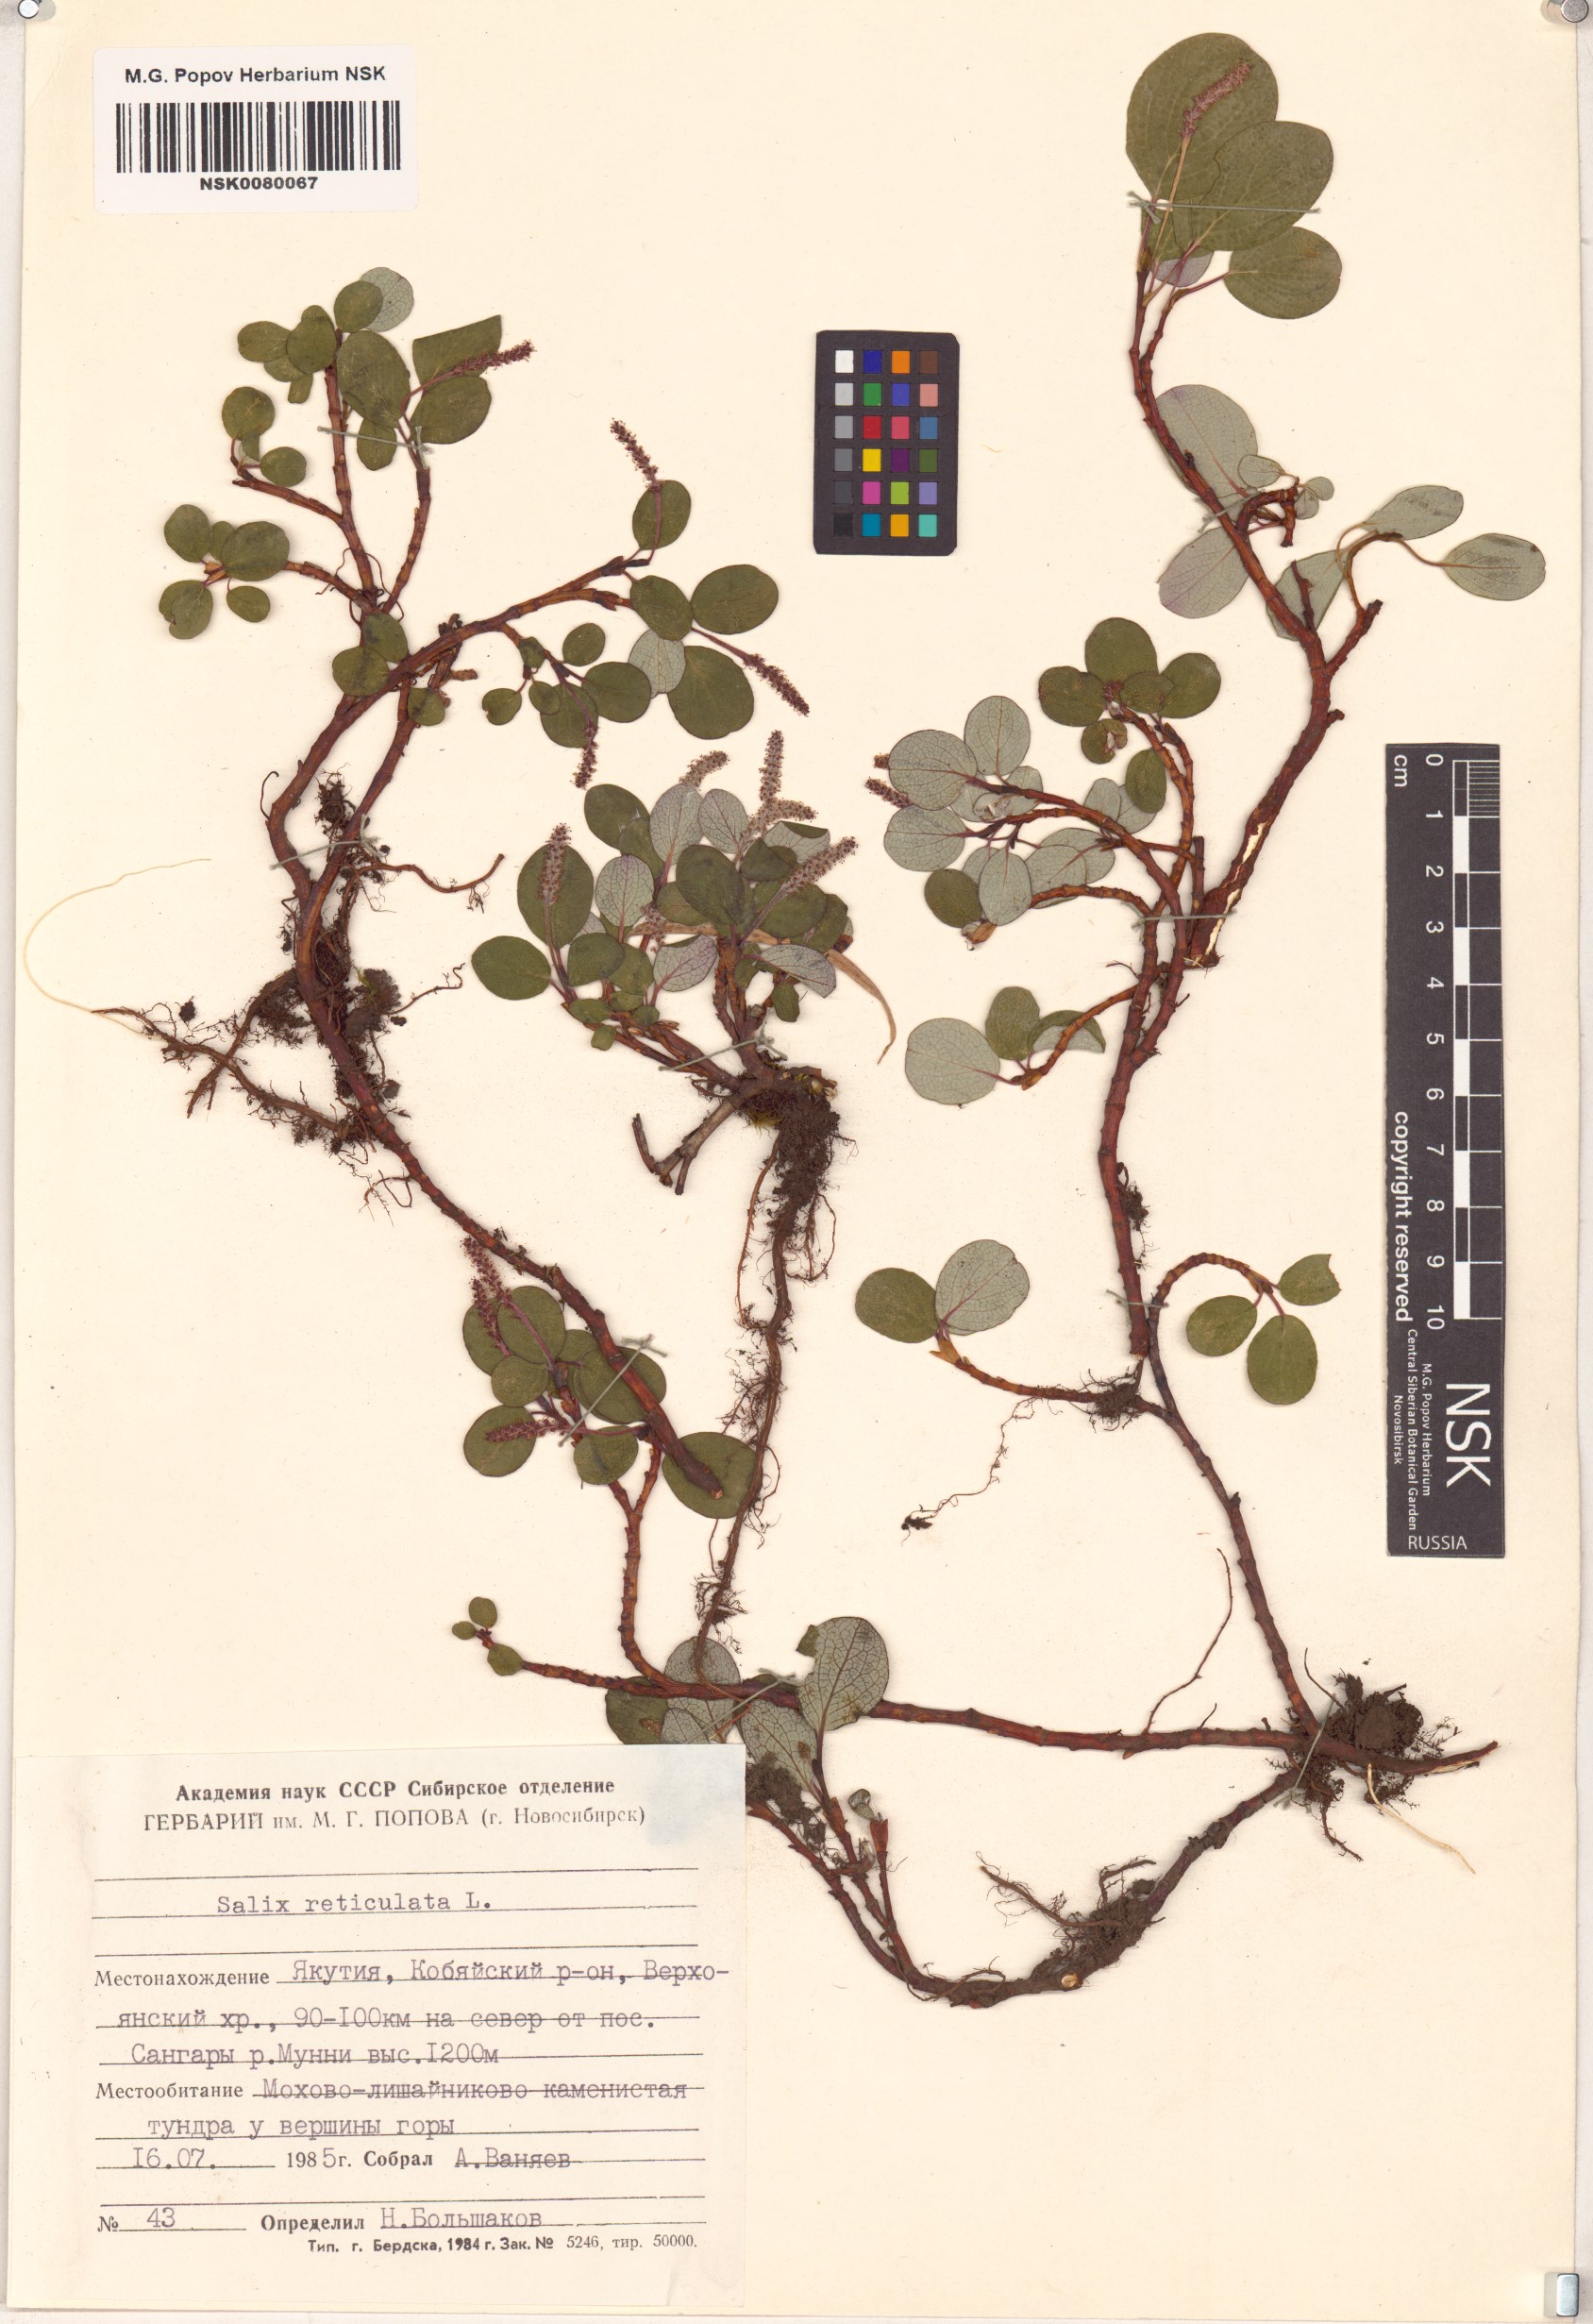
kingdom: Plantae
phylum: Tracheophyta
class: Magnoliopsida
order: Malpighiales
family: Salicaceae
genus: Salix
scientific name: Salix reticulata
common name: Net-leaved willow
